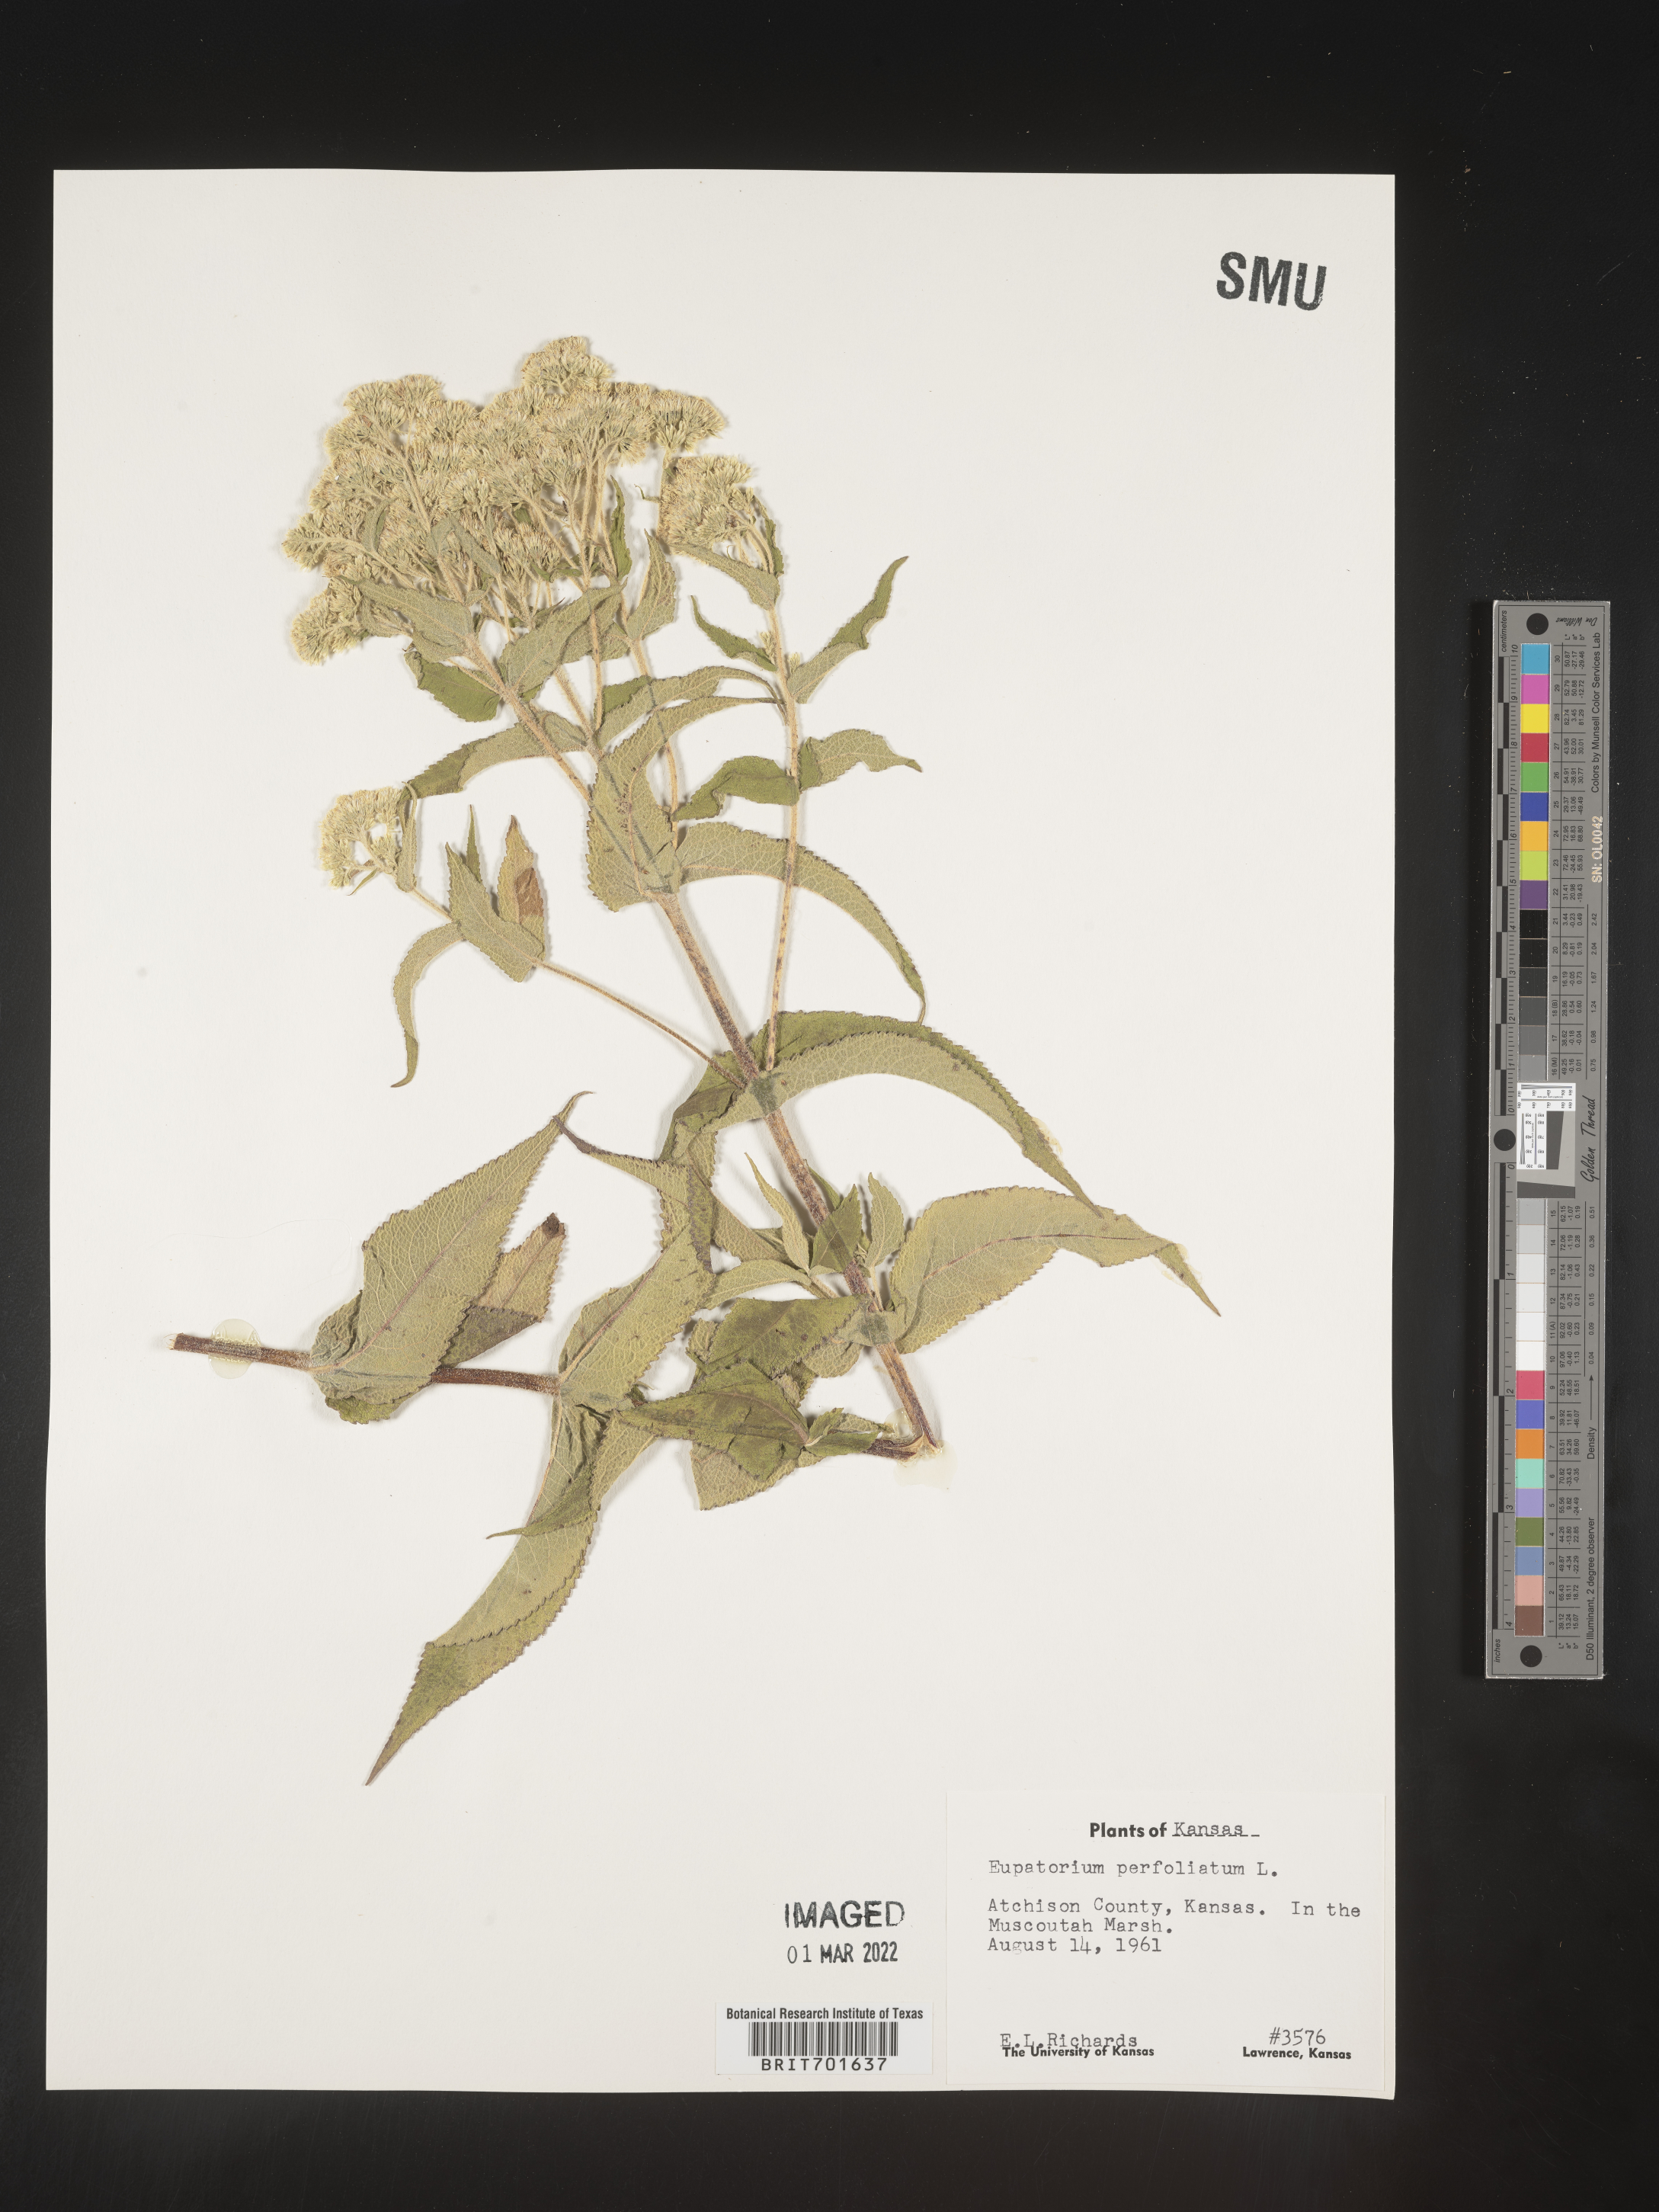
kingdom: Plantae
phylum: Tracheophyta
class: Magnoliopsida
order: Asterales
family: Asteraceae
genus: Eupatorium
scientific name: Eupatorium perfoliatum
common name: Boneset
